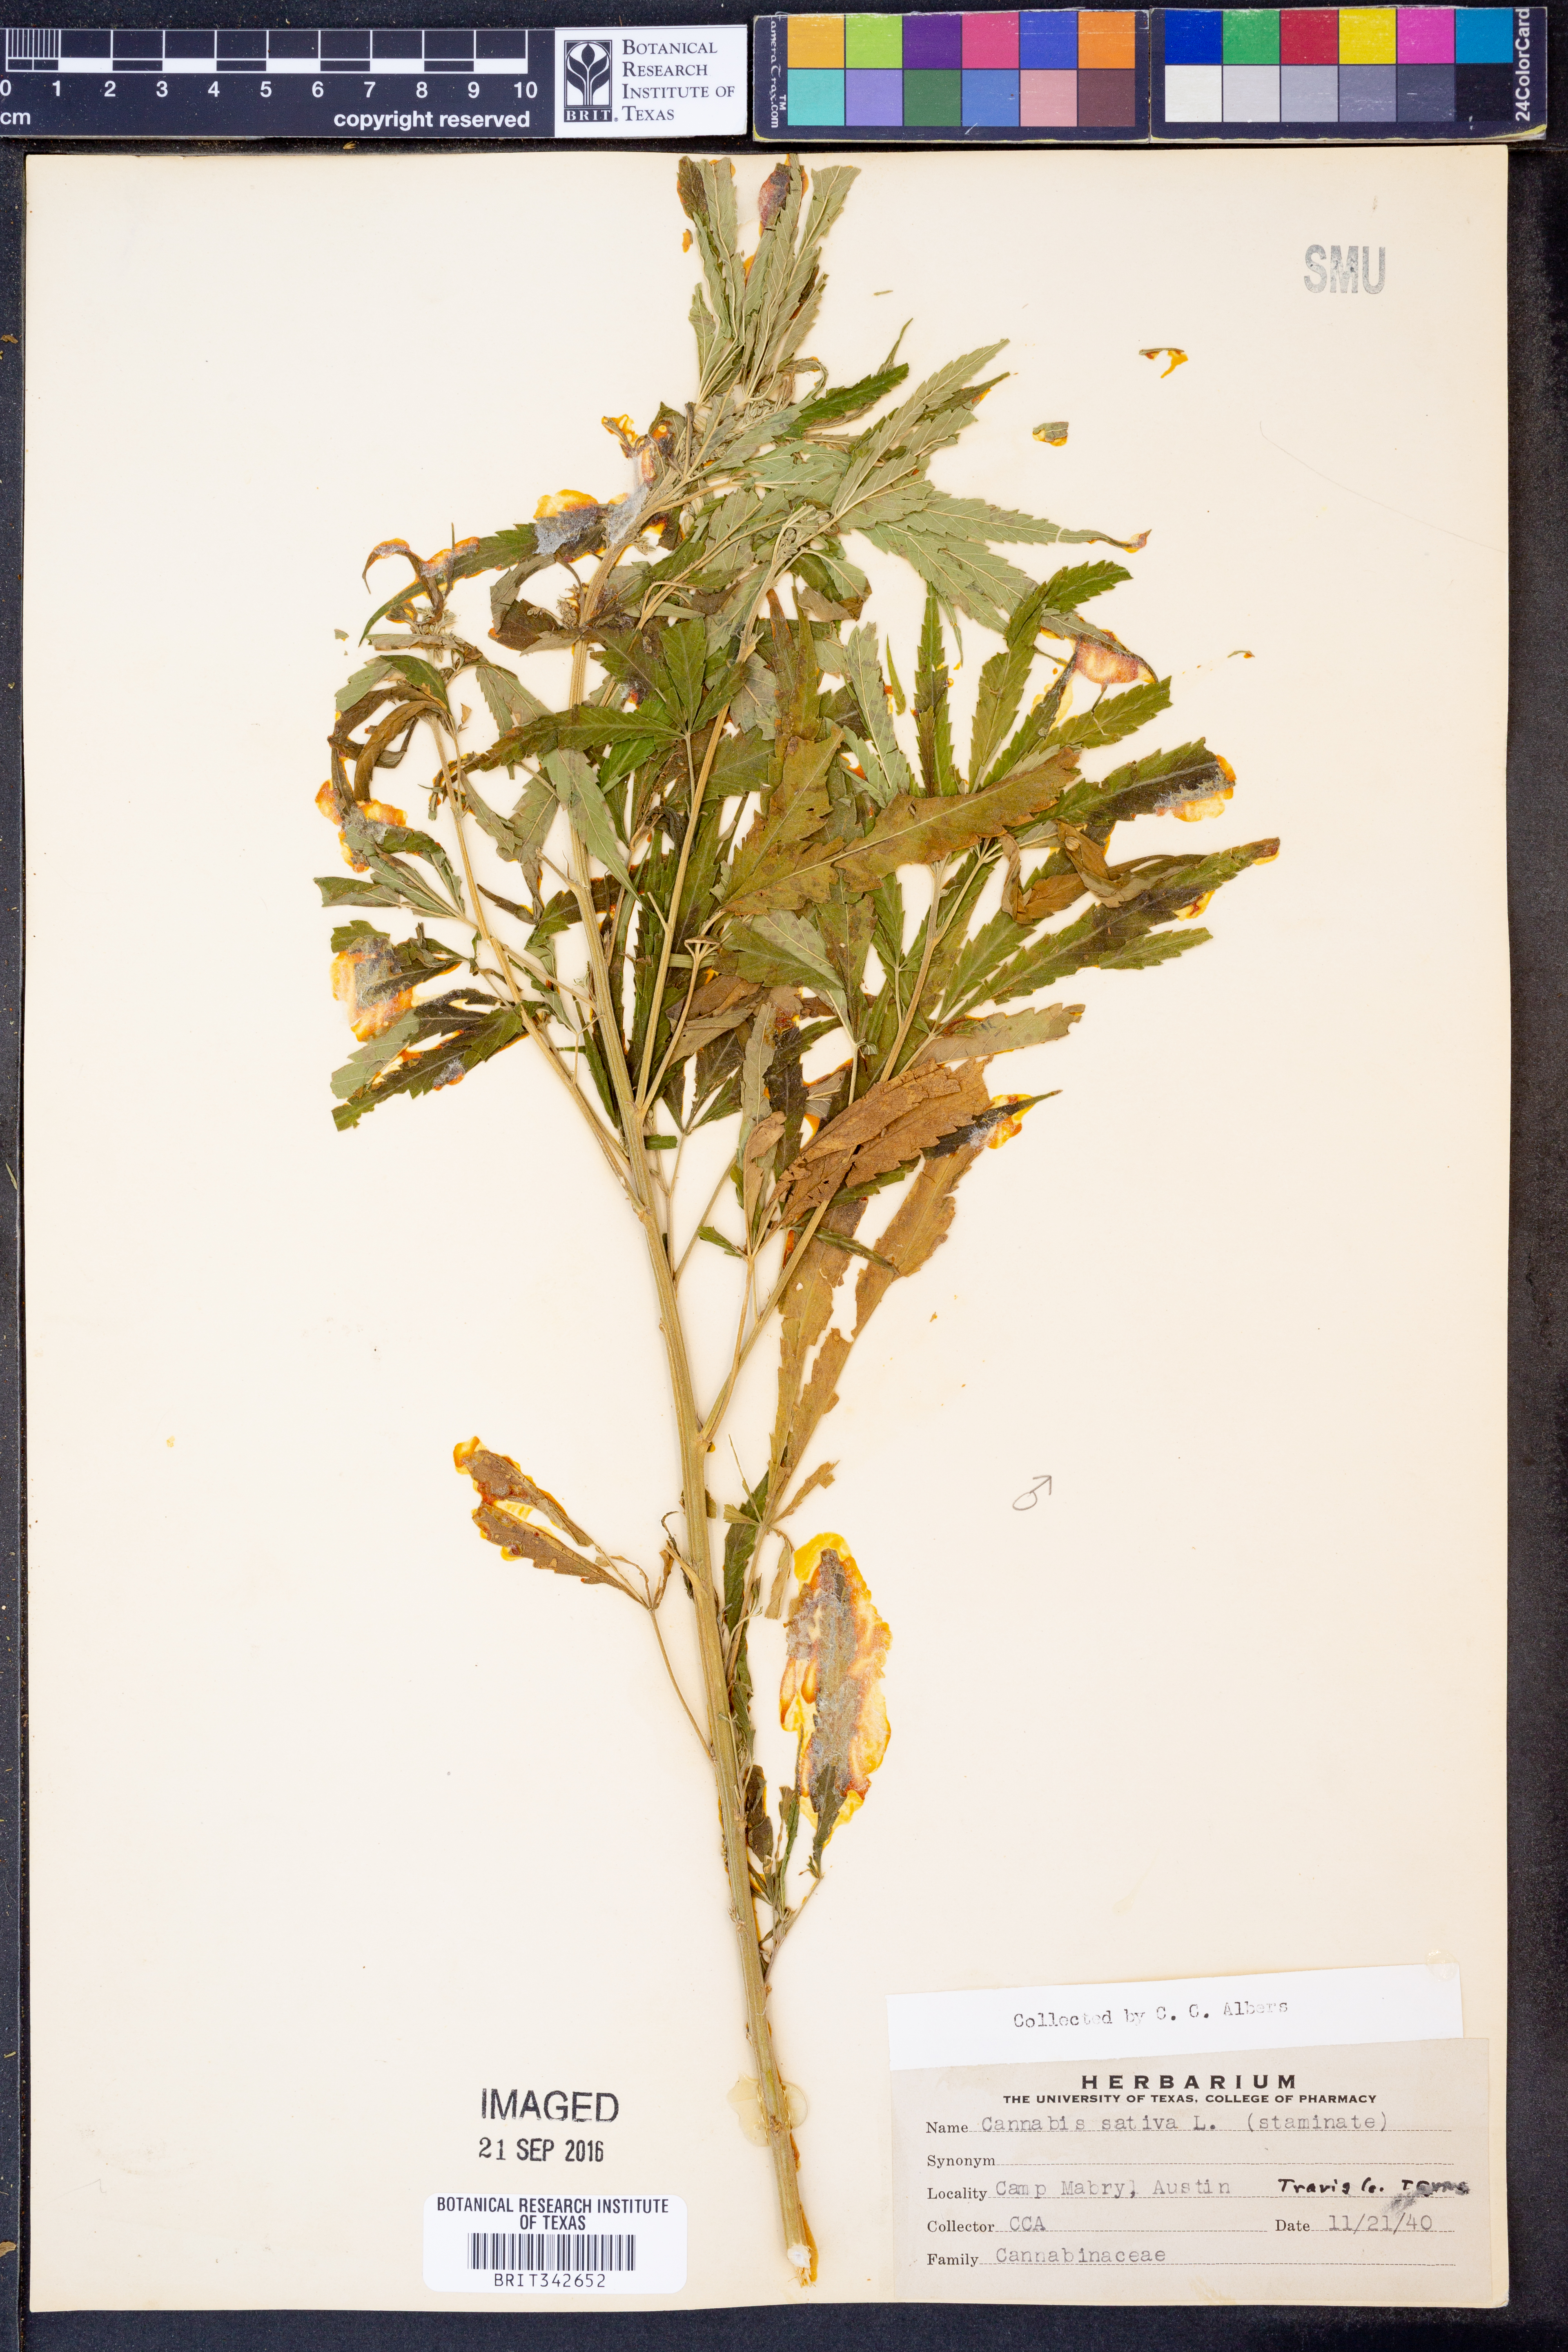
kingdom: Plantae
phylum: Tracheophyta
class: Magnoliopsida
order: Rosales
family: Cannabaceae
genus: Cannabis
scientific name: Cannabis sativa
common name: Hemp
